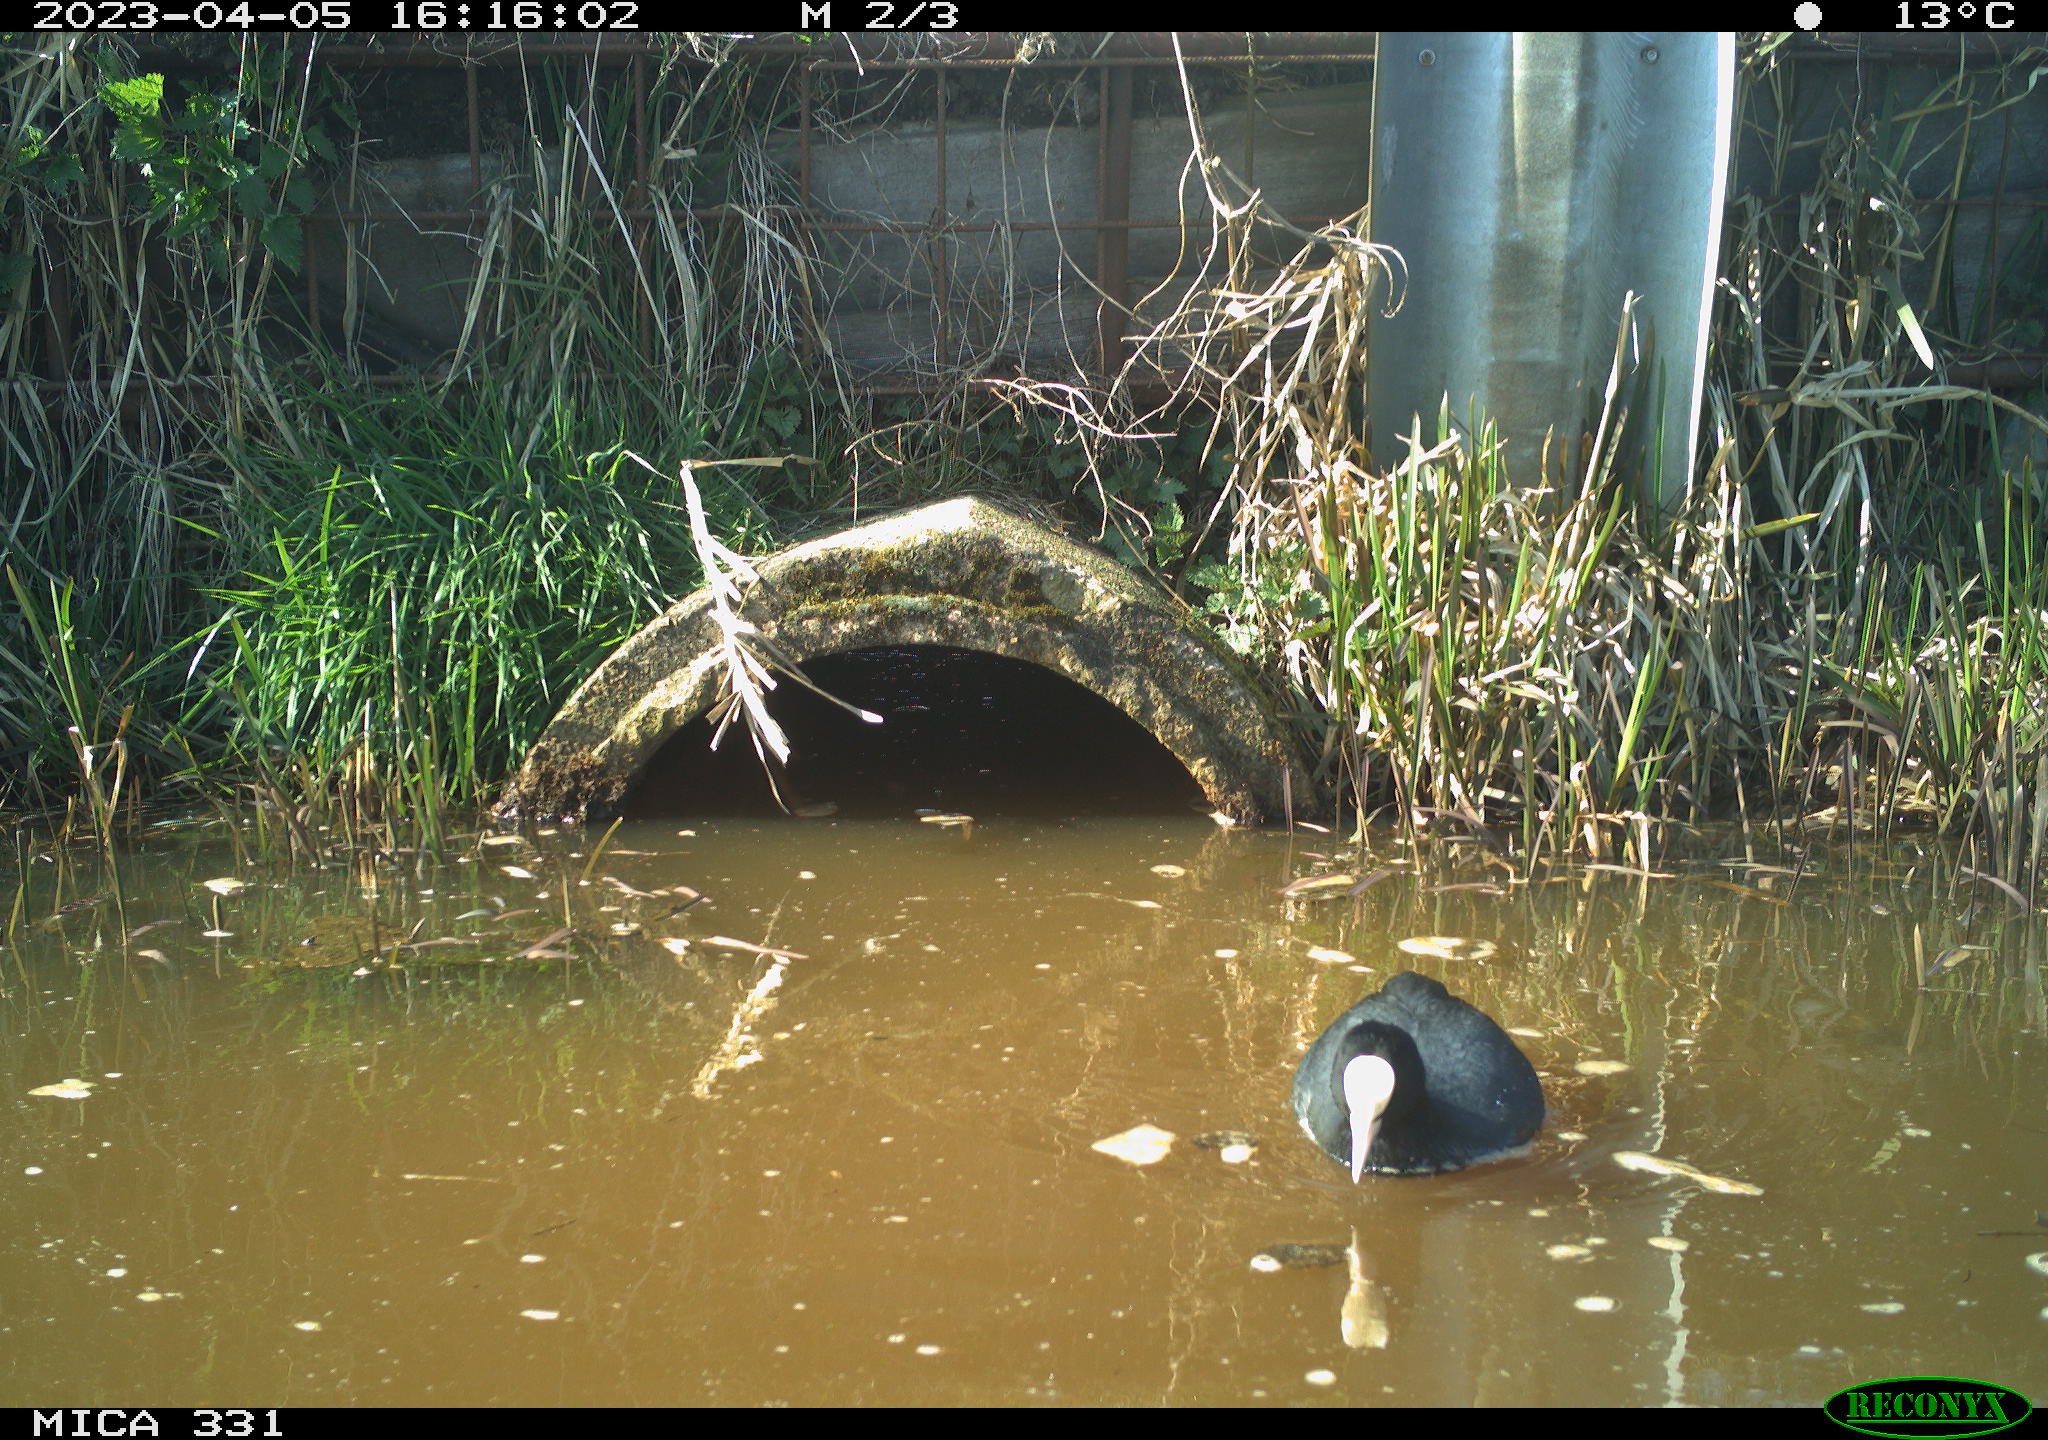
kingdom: Animalia
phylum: Chordata
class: Aves
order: Pelecaniformes
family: Ardeidae
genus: Ardea
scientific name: Ardea
